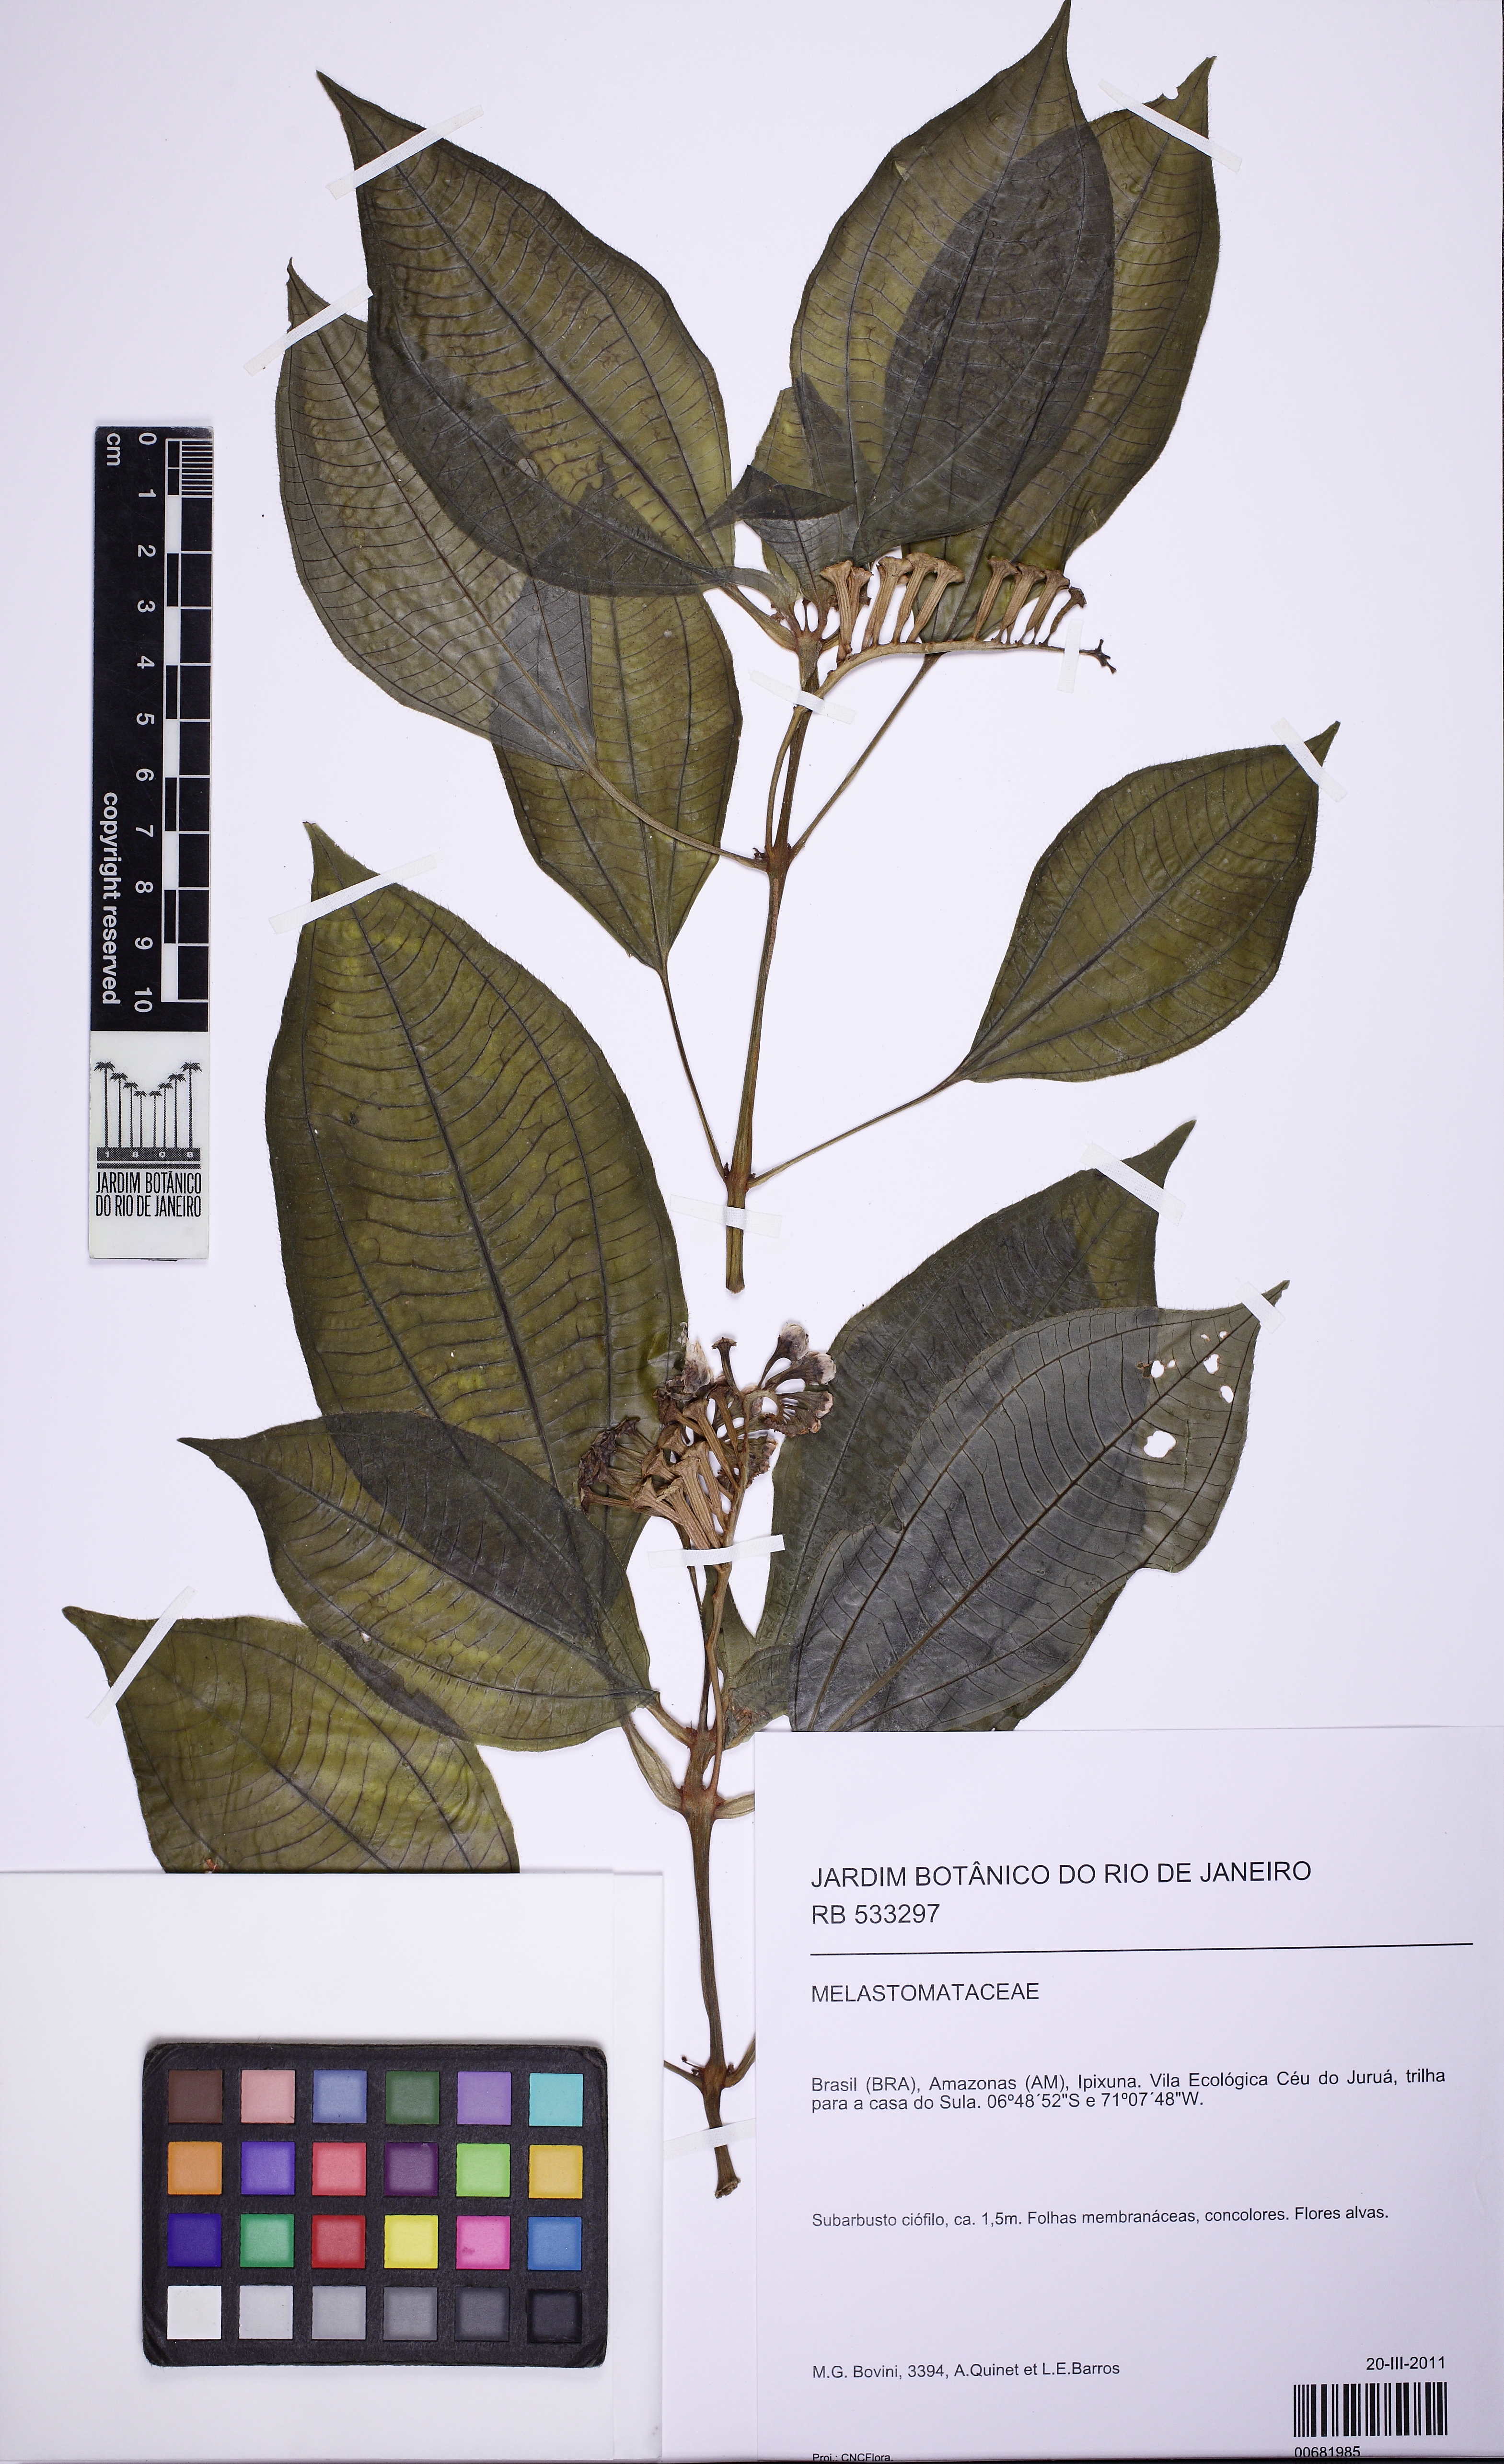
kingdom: Plantae
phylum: Tracheophyta
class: Magnoliopsida
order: Myrtales
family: Melastomataceae
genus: Salpinga
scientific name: Salpinga secunda
